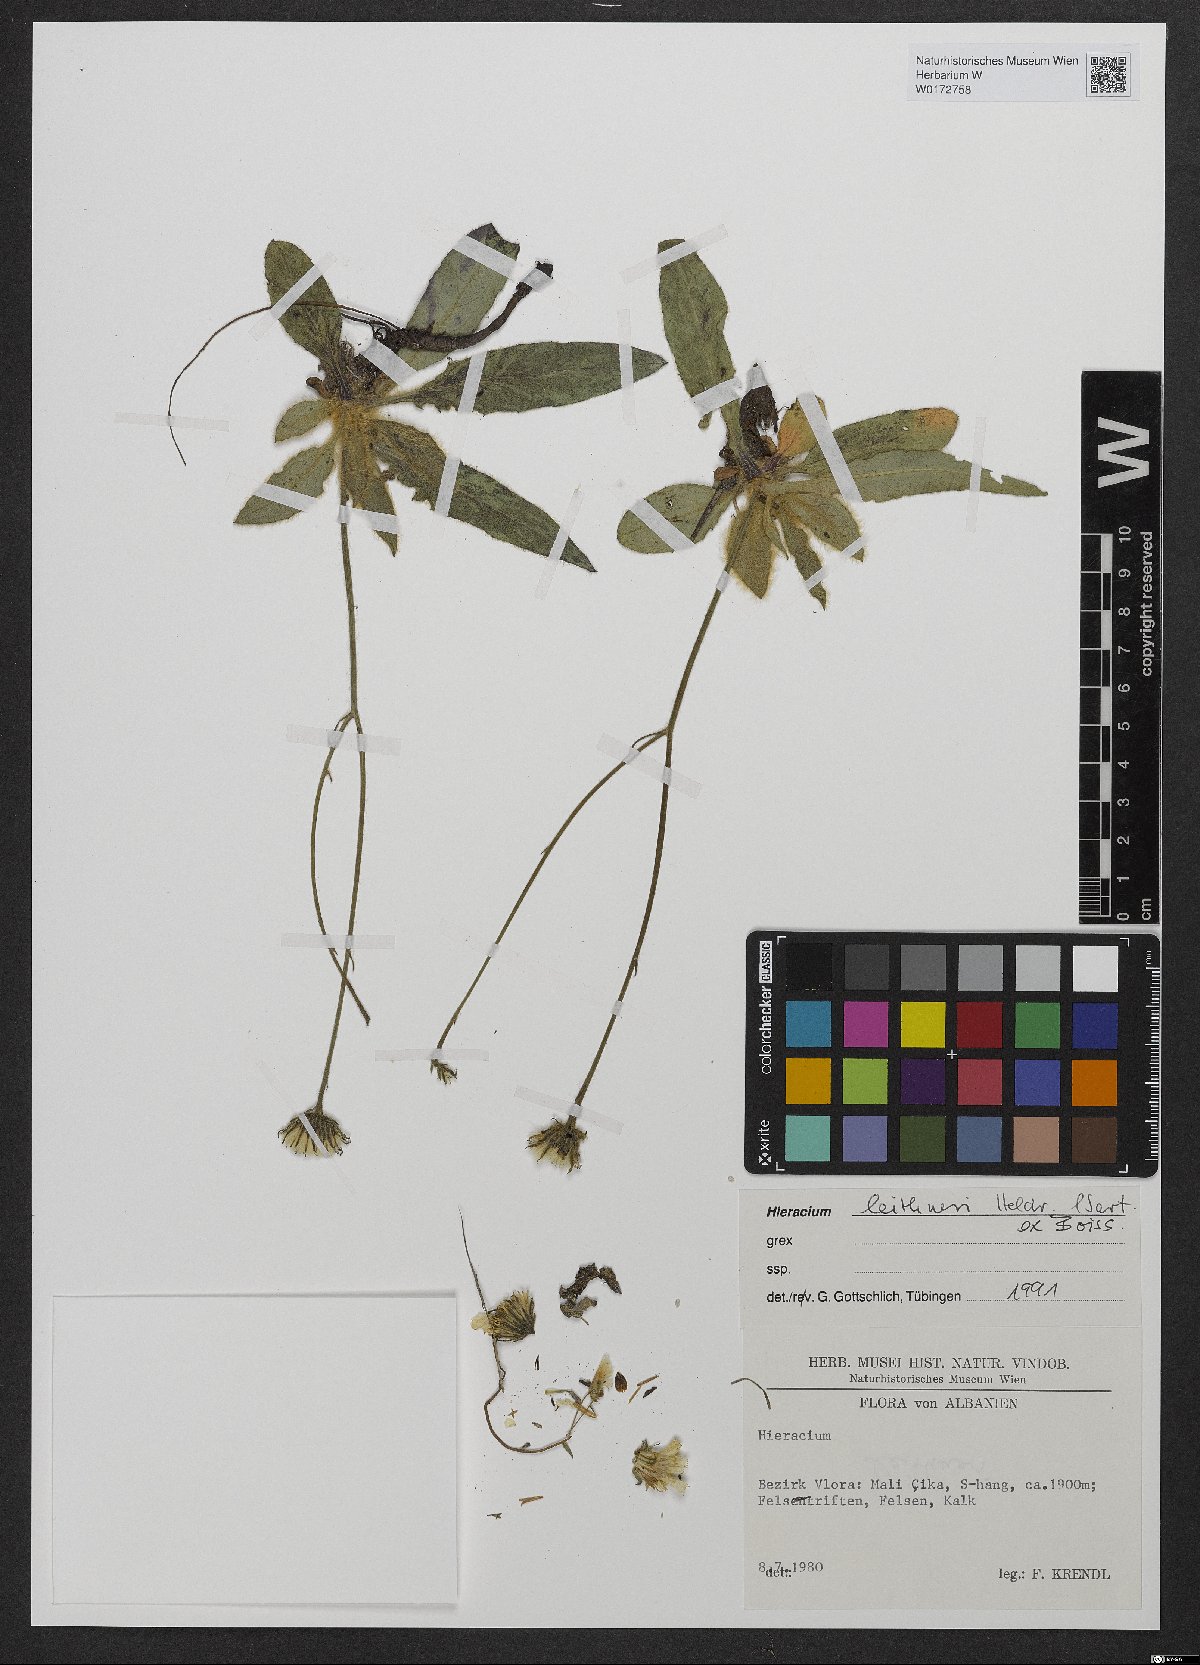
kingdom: Plantae
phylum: Tracheophyta
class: Magnoliopsida
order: Asterales
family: Asteraceae
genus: Hieracium
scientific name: Hieracium lazistanum
